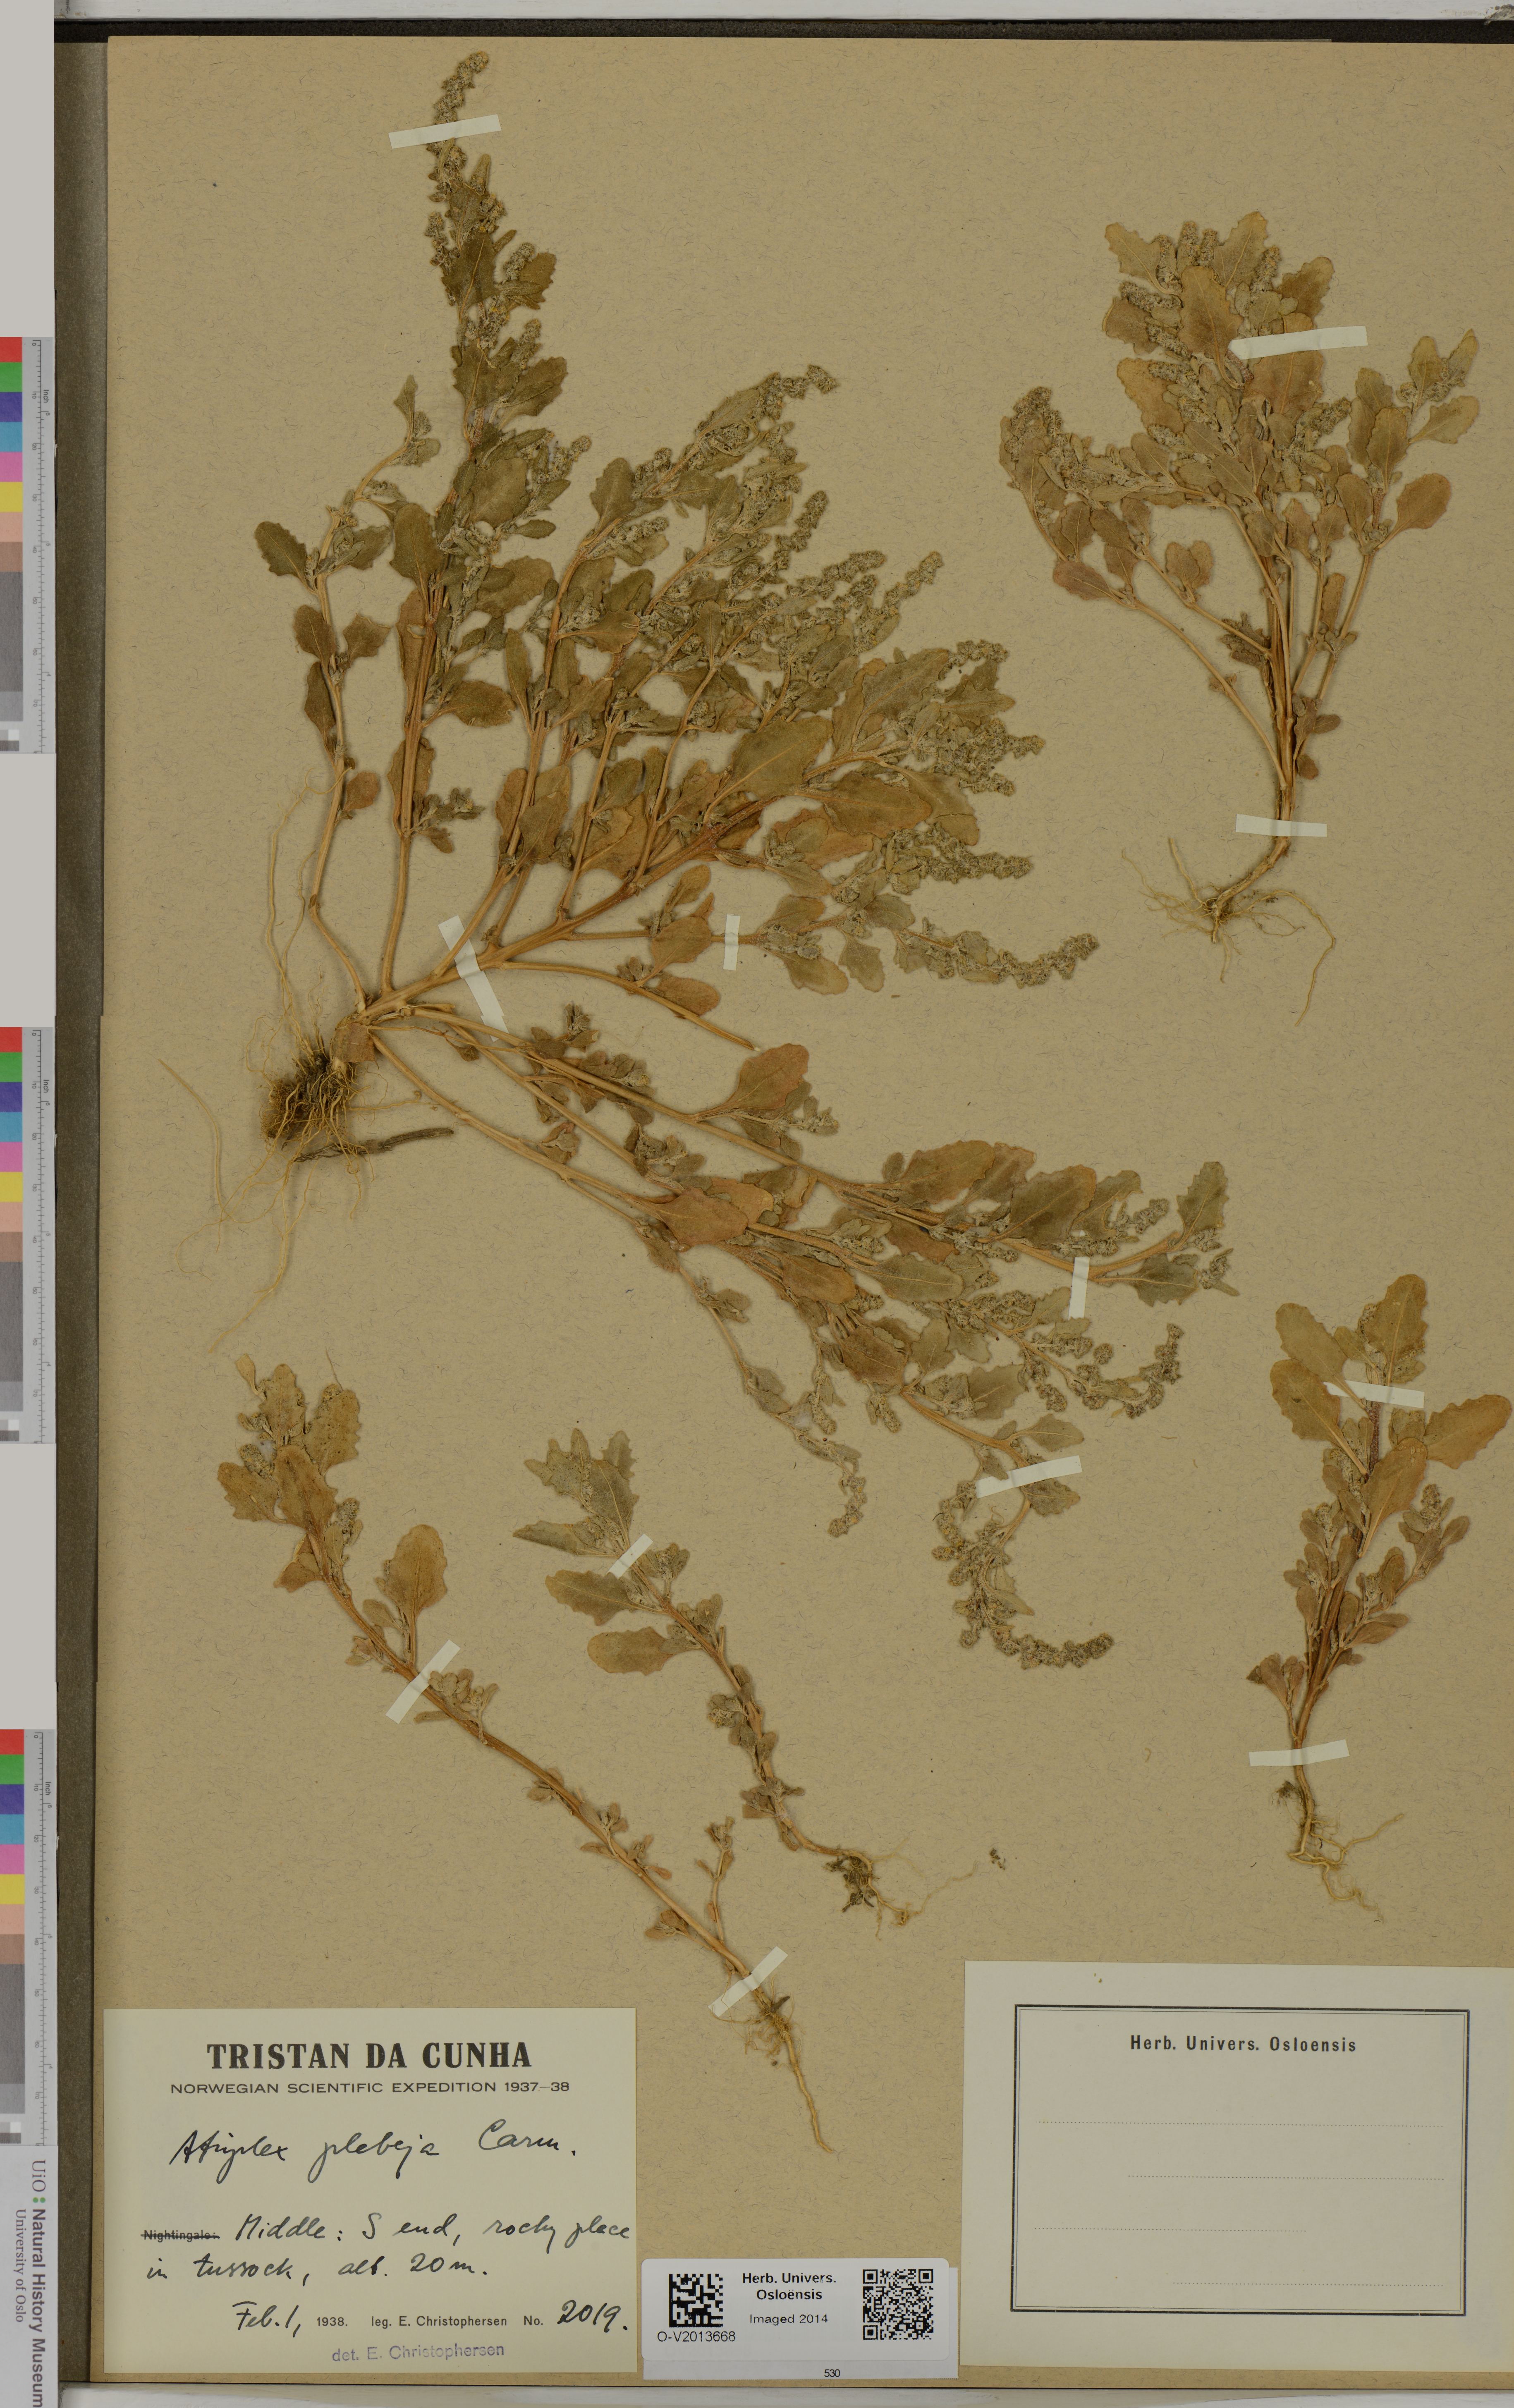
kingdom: Plantae
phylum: Tracheophyta
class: Magnoliopsida
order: Caryophyllales
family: Amaranthaceae
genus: Atriplex
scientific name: Atriplex plebeja
